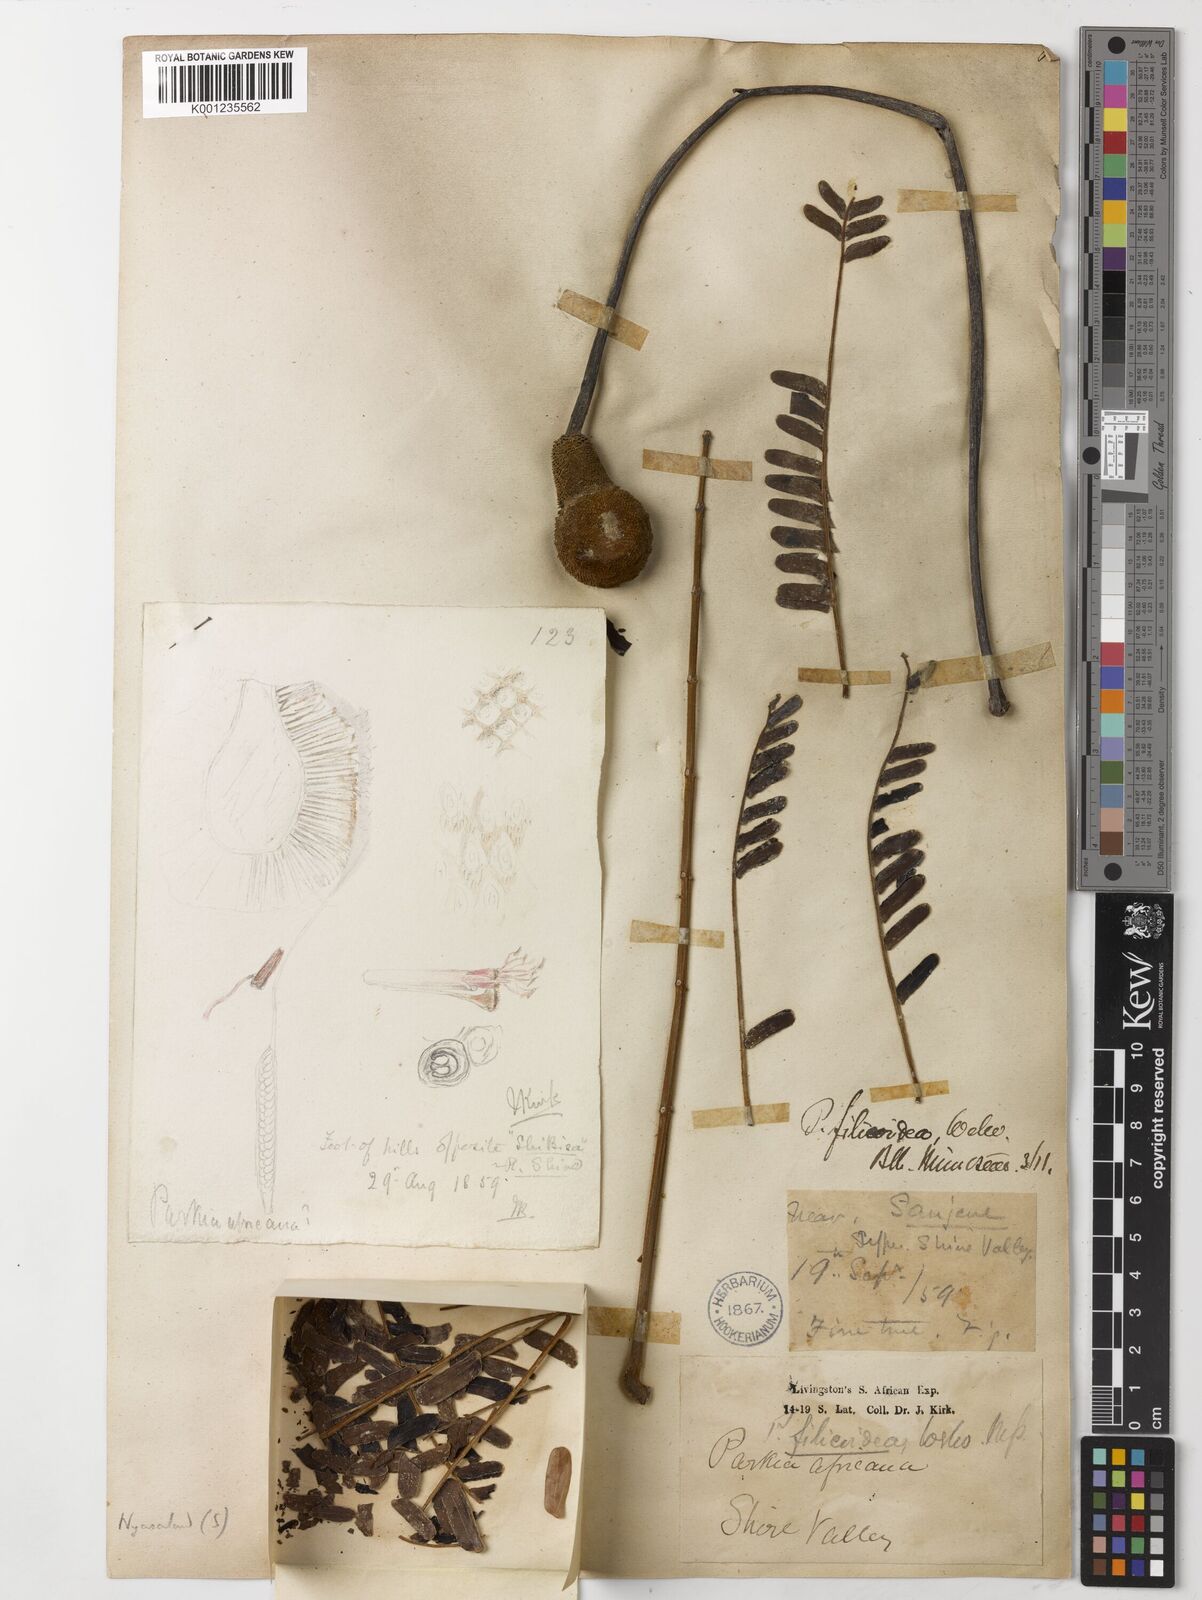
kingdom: Plantae
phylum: Tracheophyta
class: Magnoliopsida
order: Fabales
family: Fabaceae
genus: Parkia
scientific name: Parkia filicoidea
